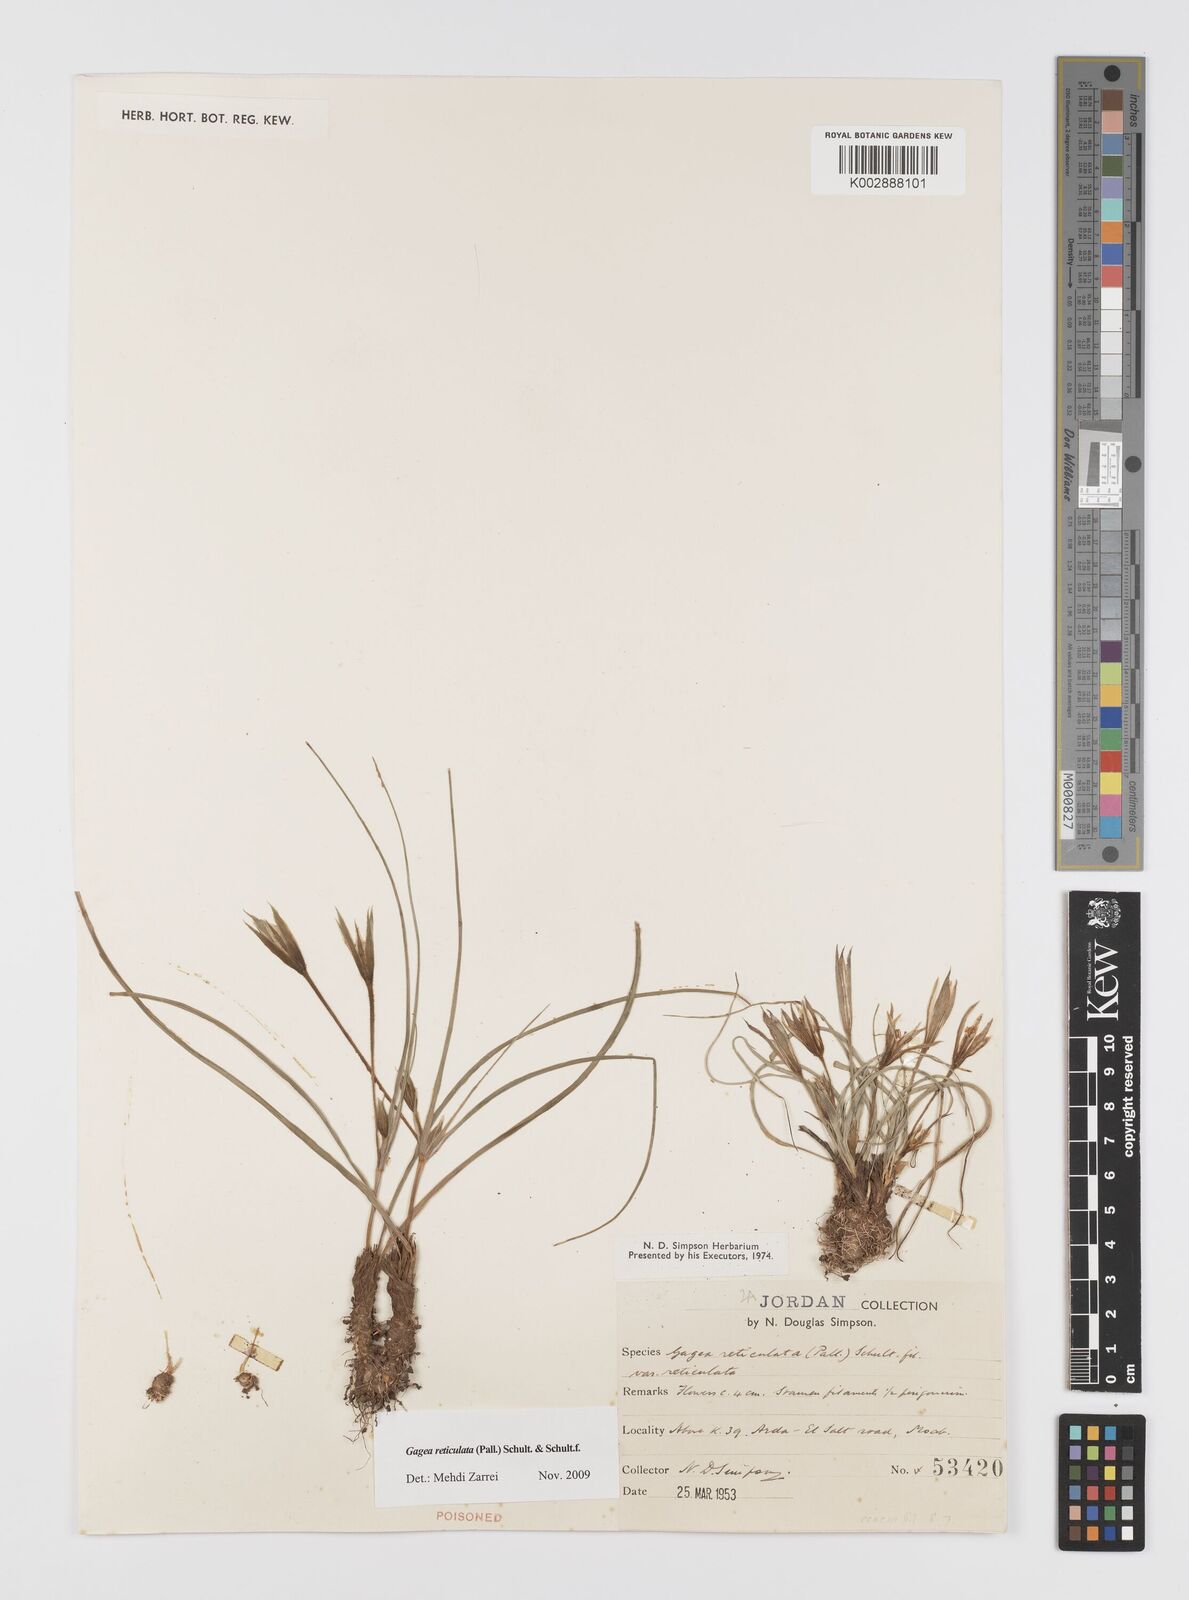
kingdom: Plantae
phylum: Tracheophyta
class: Liliopsida
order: Liliales
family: Liliaceae
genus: Gagea
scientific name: Gagea reticulata
